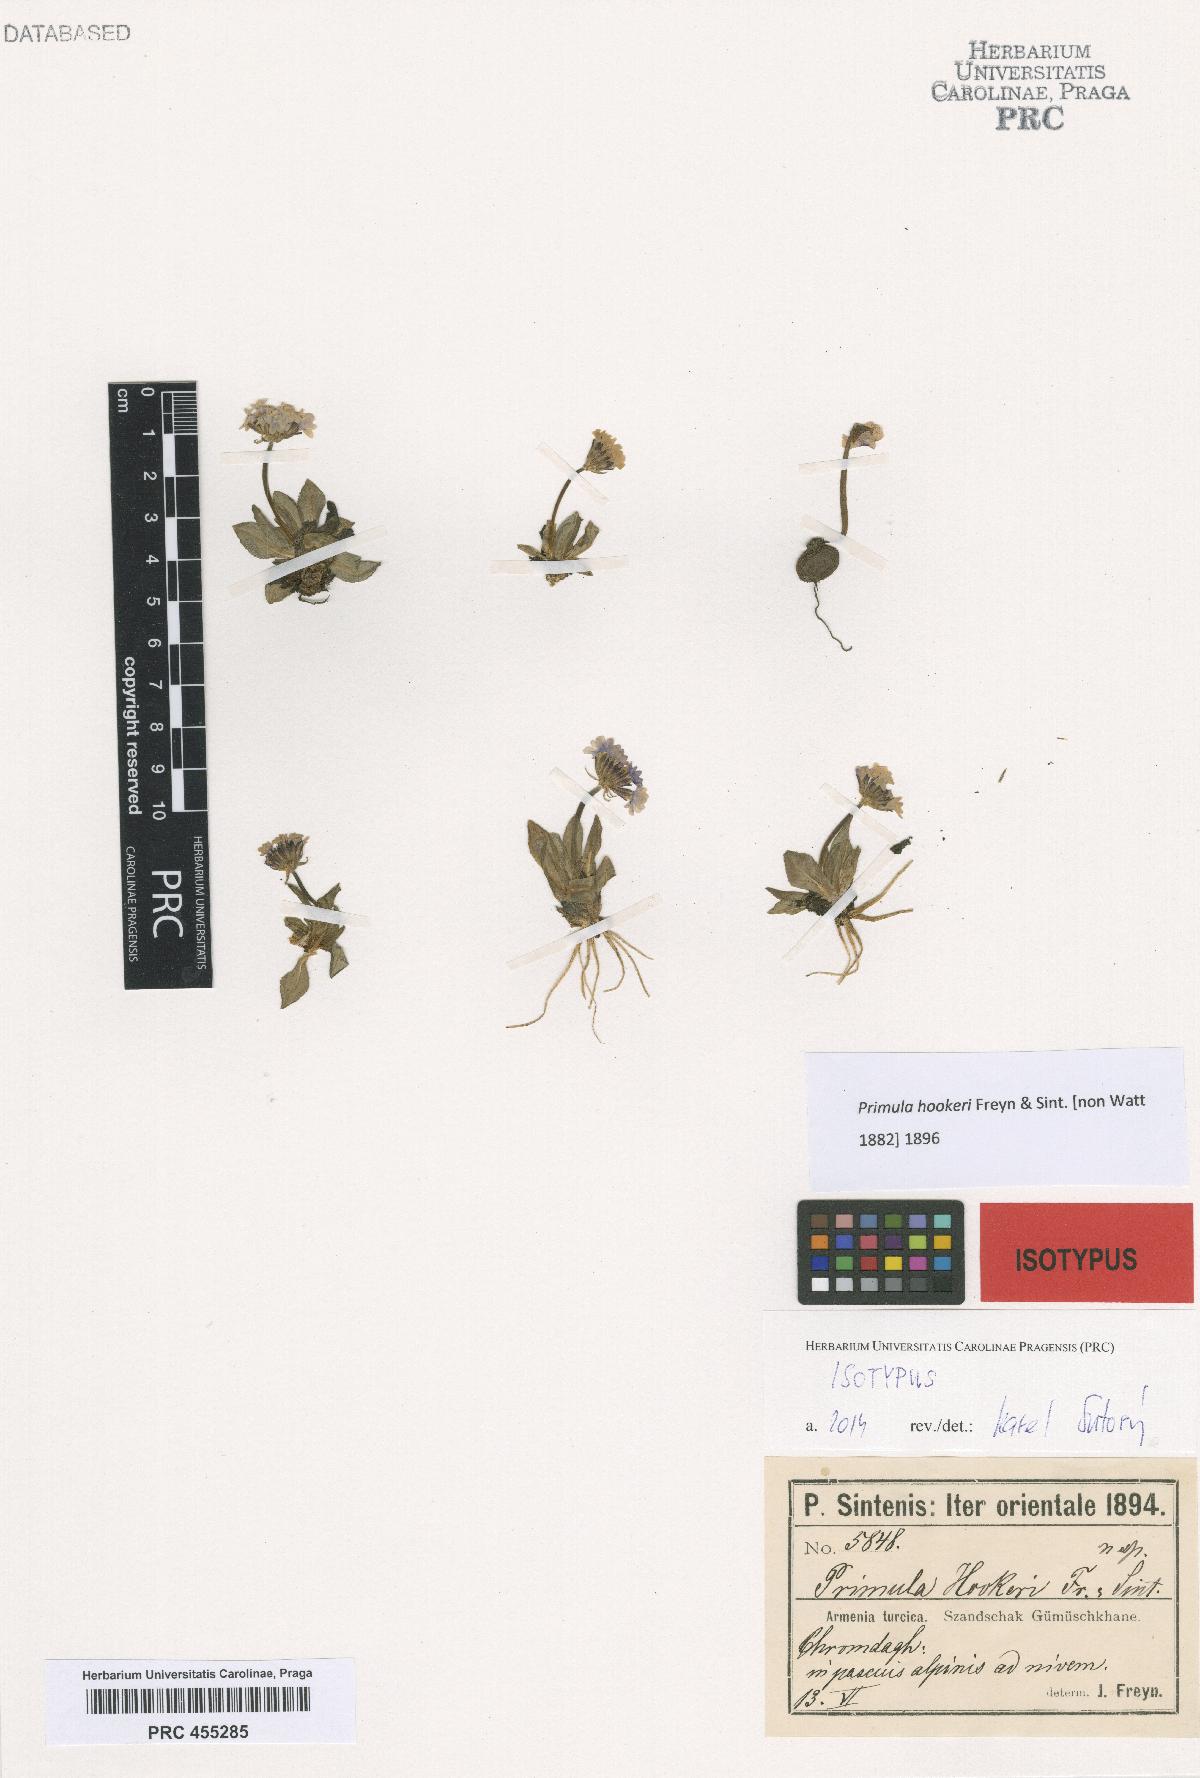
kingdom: Plantae
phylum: Tracheophyta
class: Magnoliopsida
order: Ericales
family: Primulaceae
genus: Primula
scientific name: Primula algida
